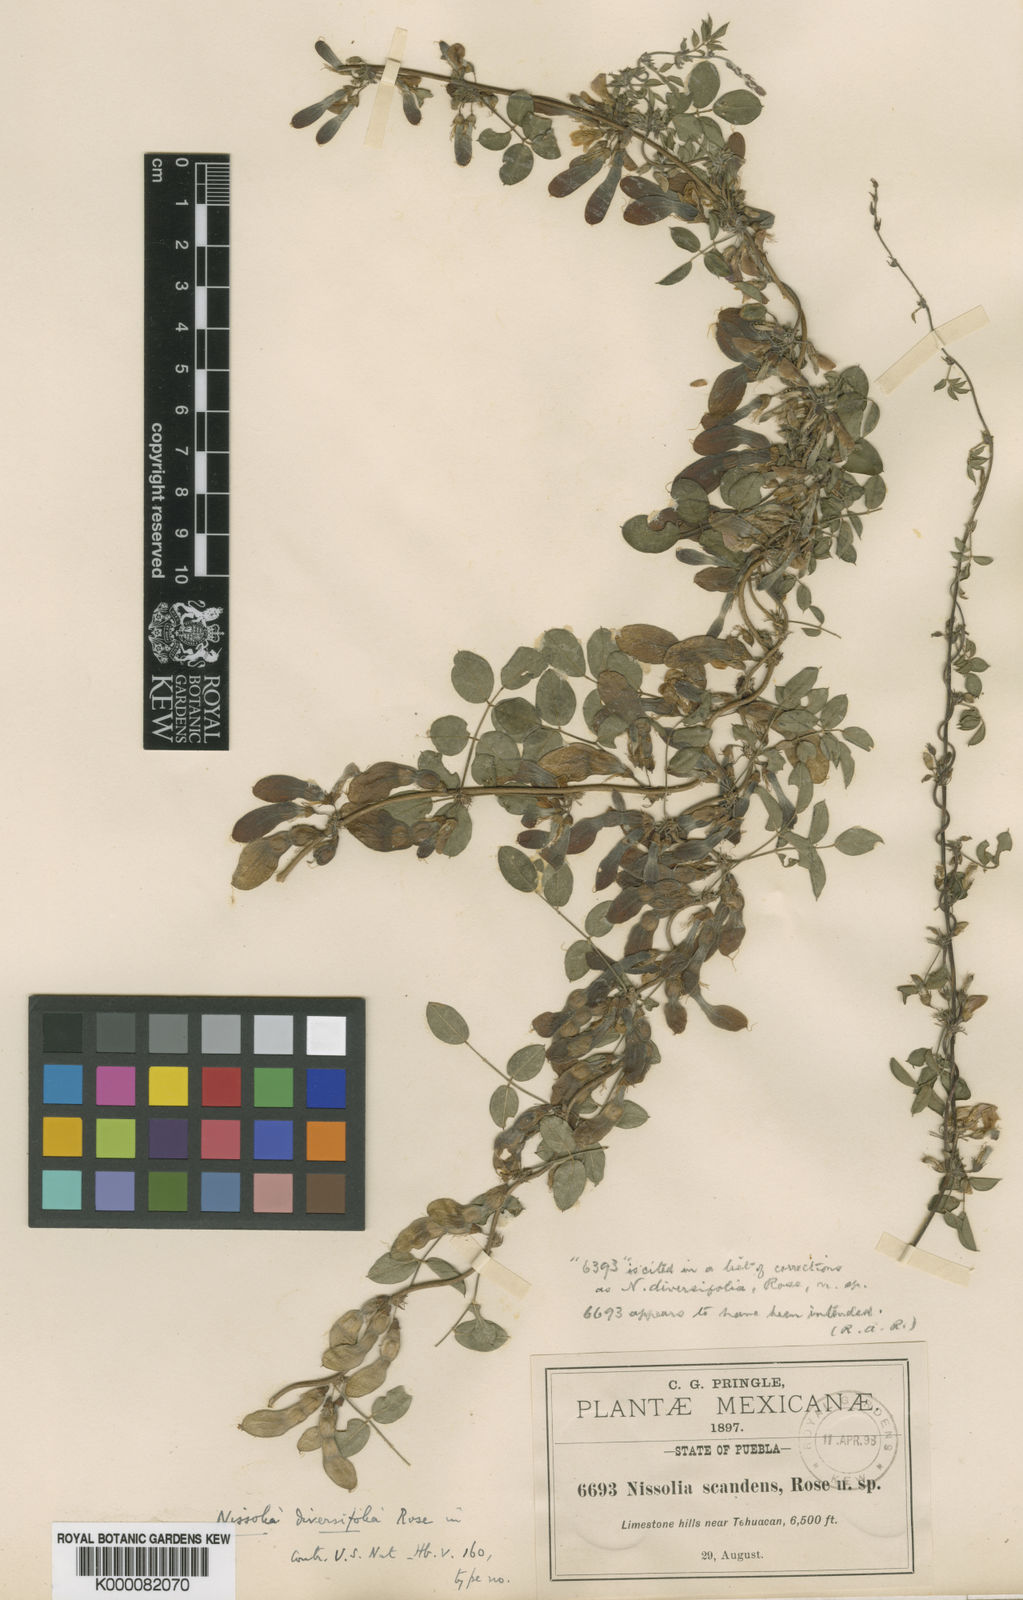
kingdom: Plantae
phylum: Tracheophyta
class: Magnoliopsida
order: Fabales
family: Fabaceae
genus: Nissolia
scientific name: Nissolia pringlei
